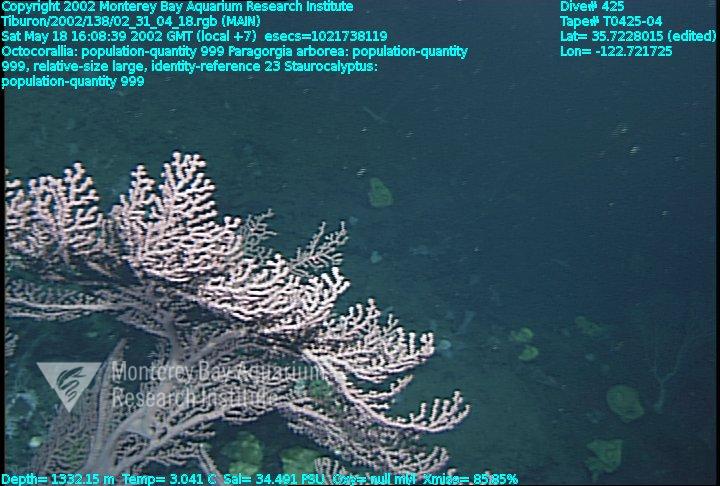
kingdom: Animalia
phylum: Porifera
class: Hexactinellida
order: Lyssacinosida
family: Rossellidae
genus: Staurocalyptus
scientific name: Staurocalyptus
